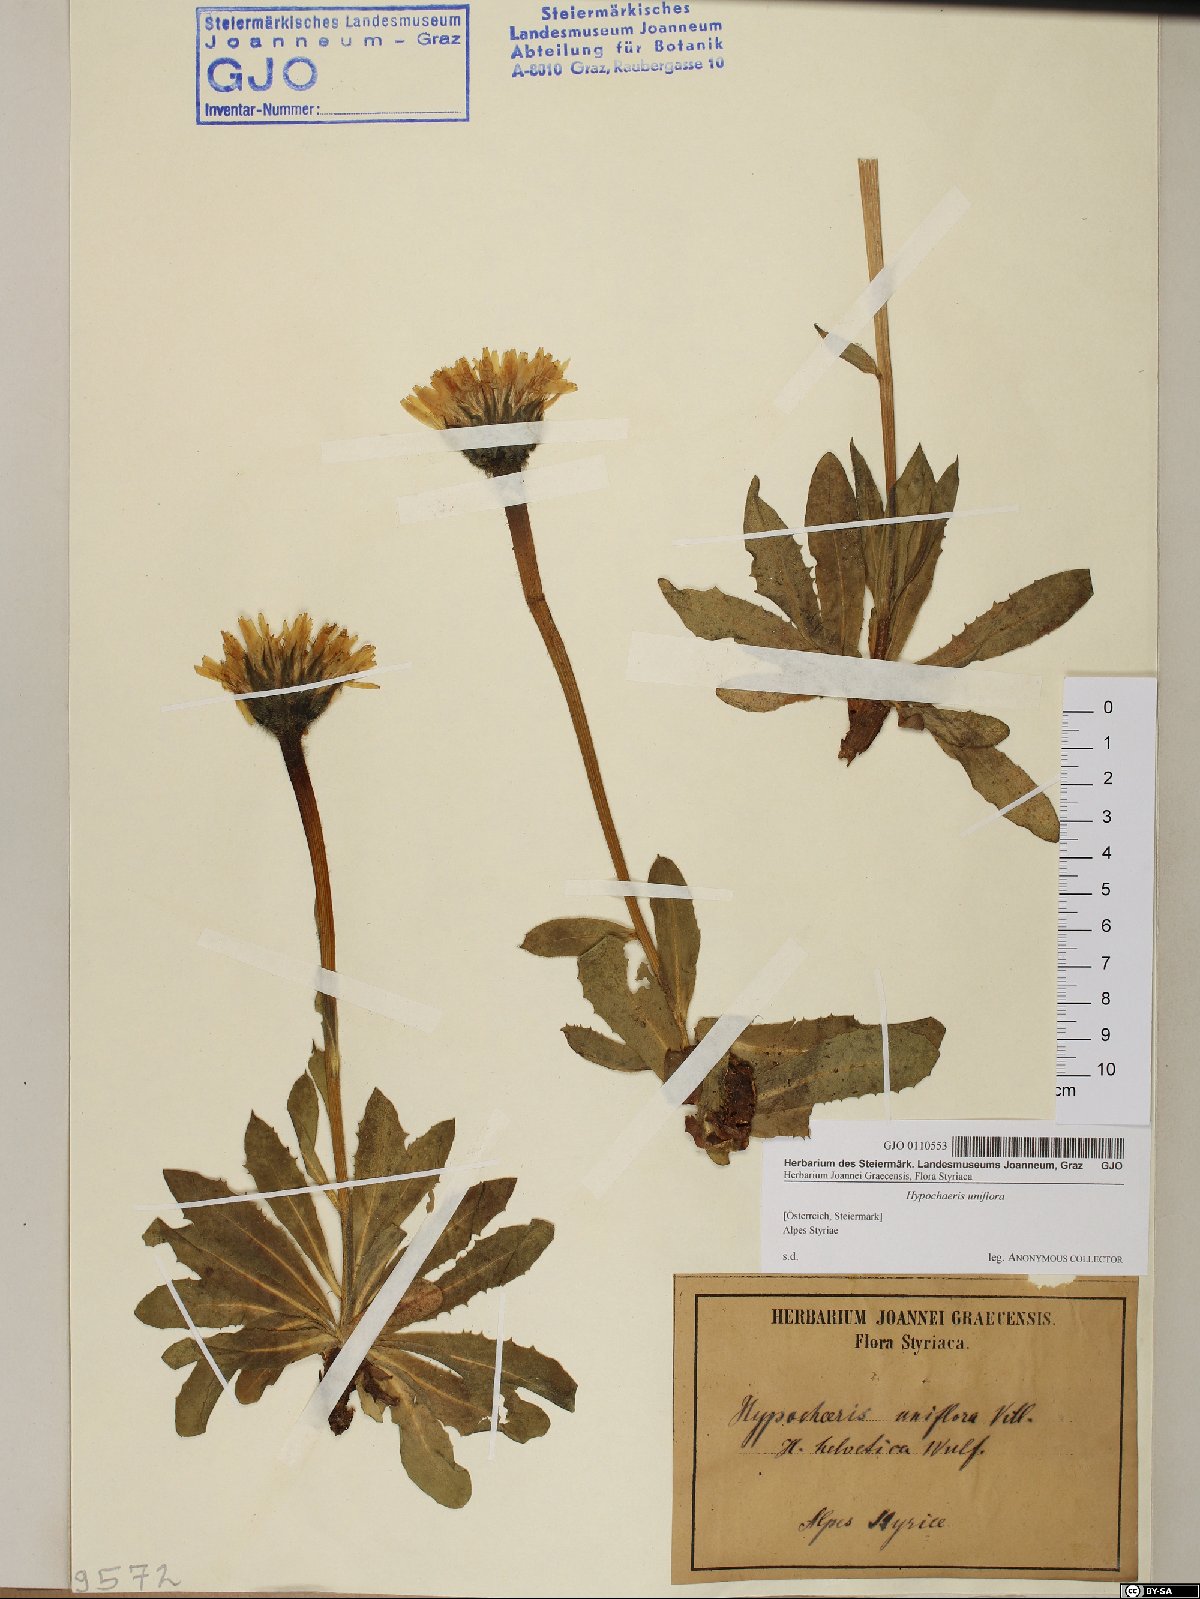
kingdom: Plantae
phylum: Tracheophyta
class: Magnoliopsida
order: Asterales
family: Asteraceae
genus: Trommsdorffia
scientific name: Trommsdorffia uniflora
